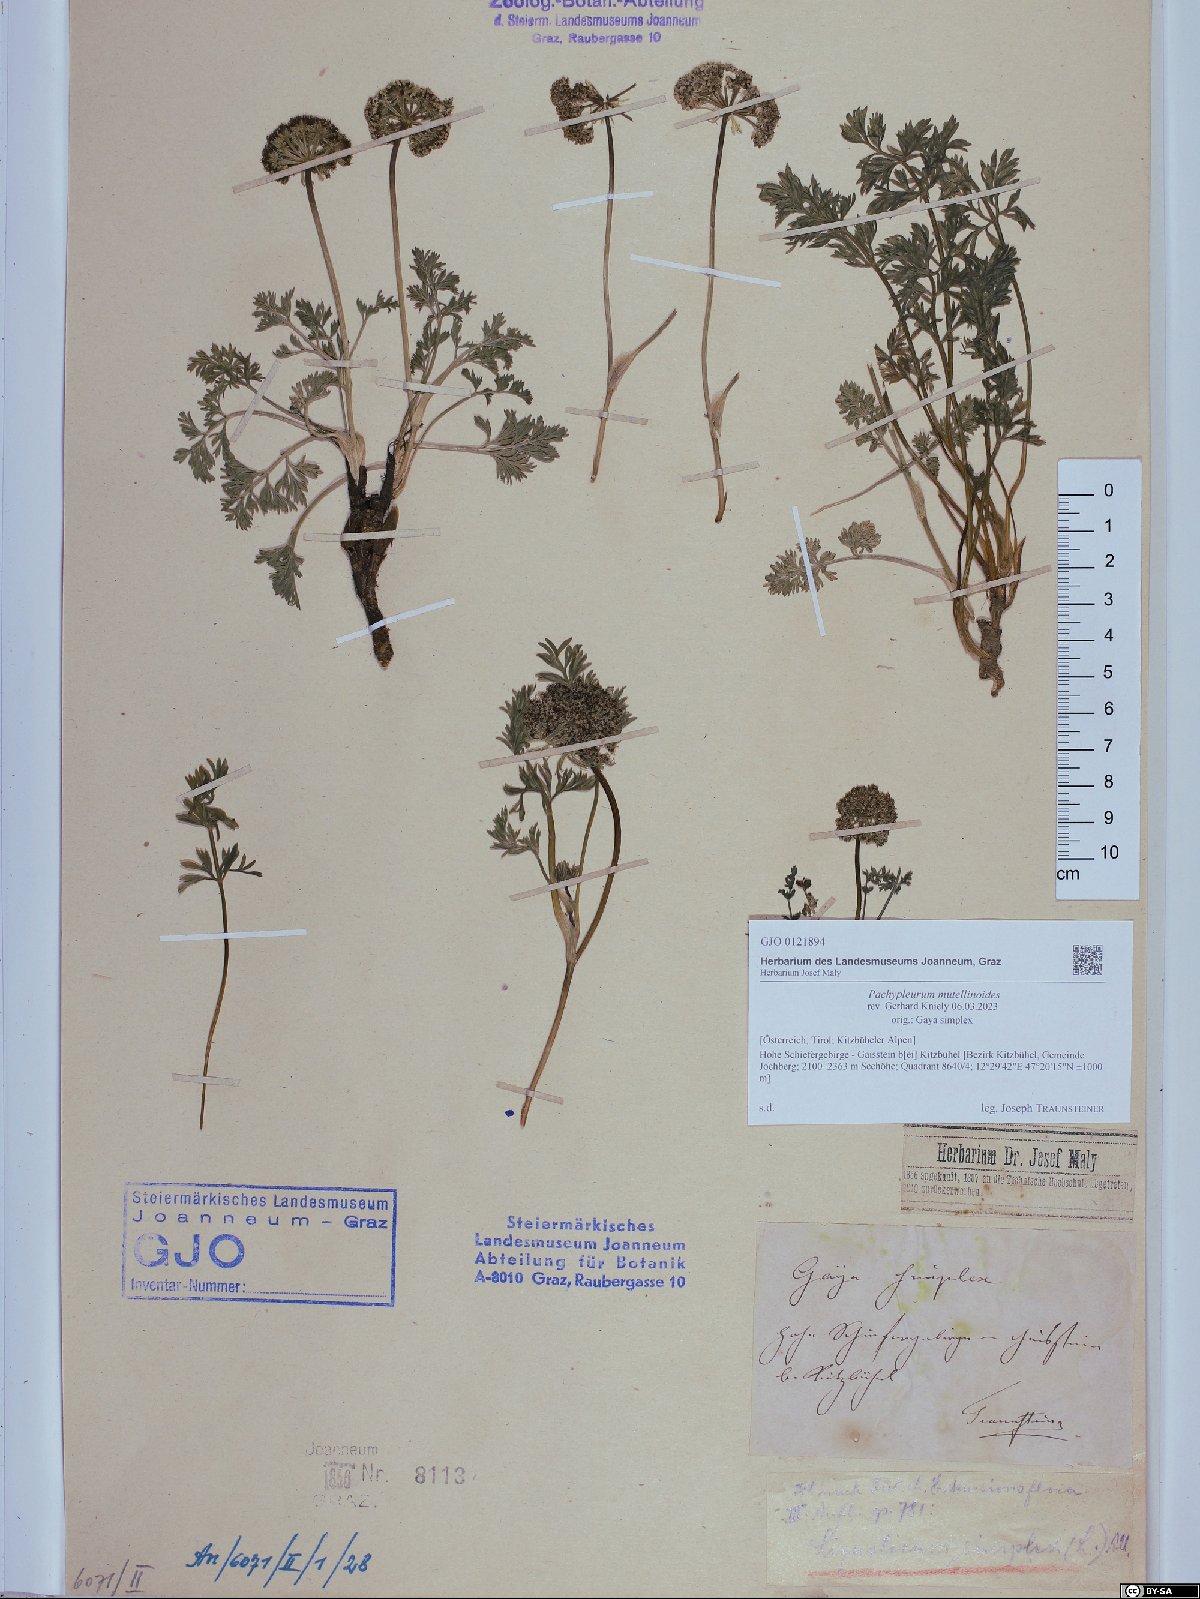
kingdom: Plantae
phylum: Tracheophyta
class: Magnoliopsida
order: Apiales
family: Apiaceae
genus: Pachypleurum
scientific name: Pachypleurum mutellinoides
